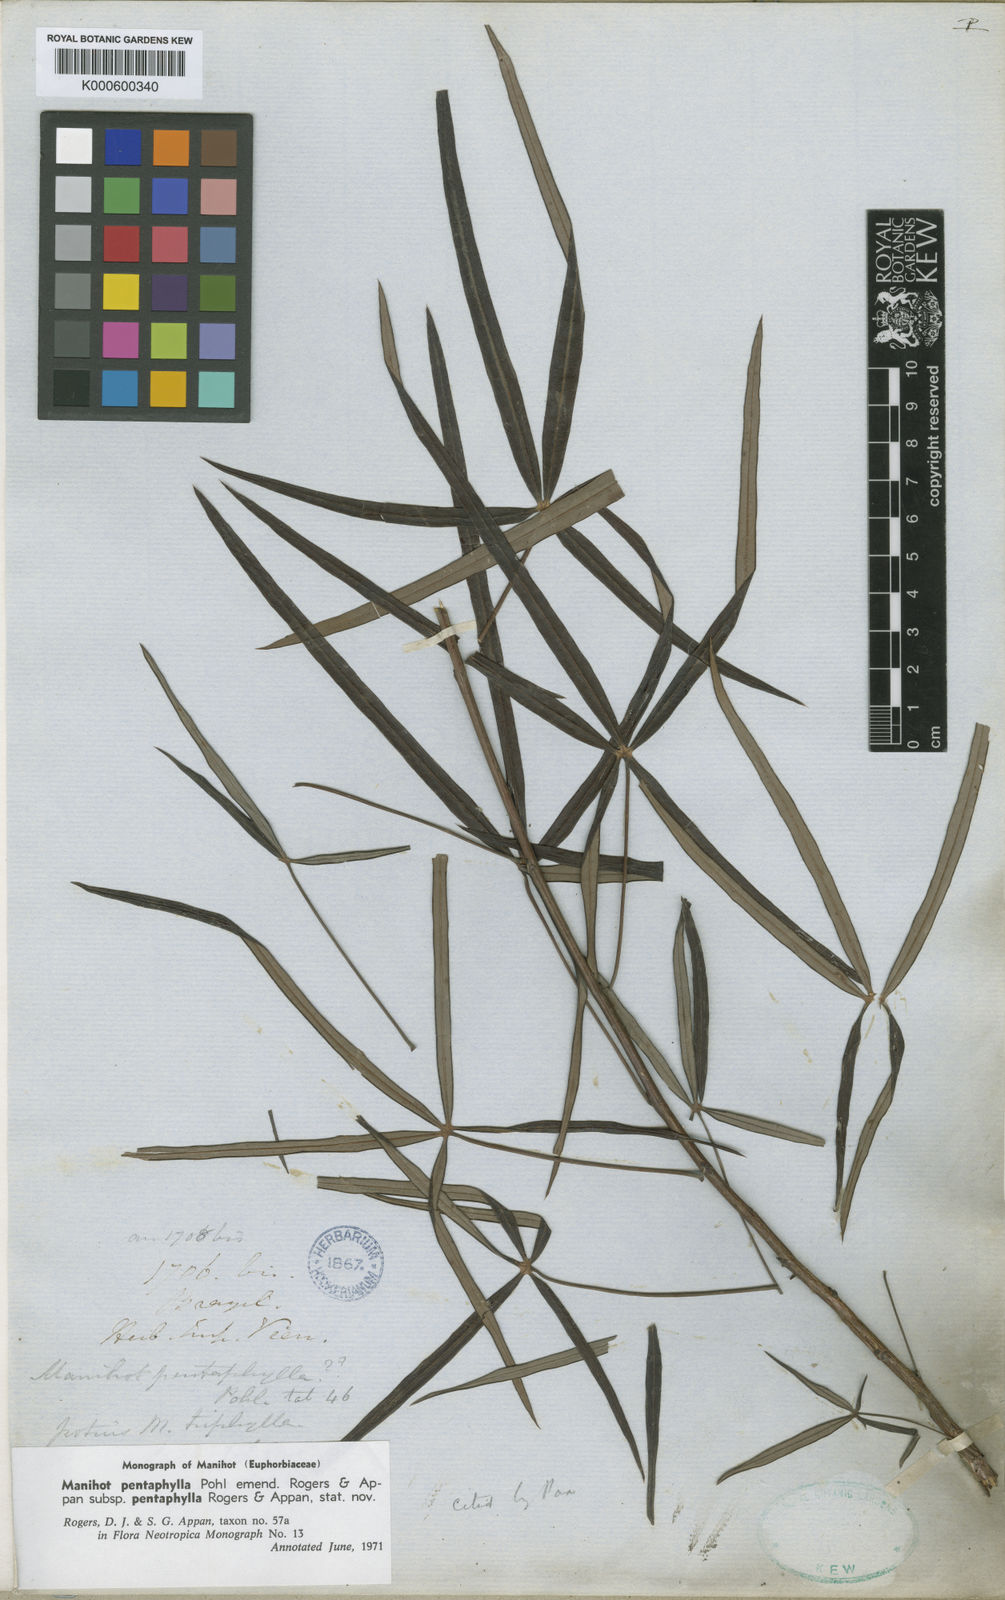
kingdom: Plantae
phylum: Tracheophyta
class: Magnoliopsida
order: Malpighiales
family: Euphorbiaceae
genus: Manihot
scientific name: Manihot pentaphylla
